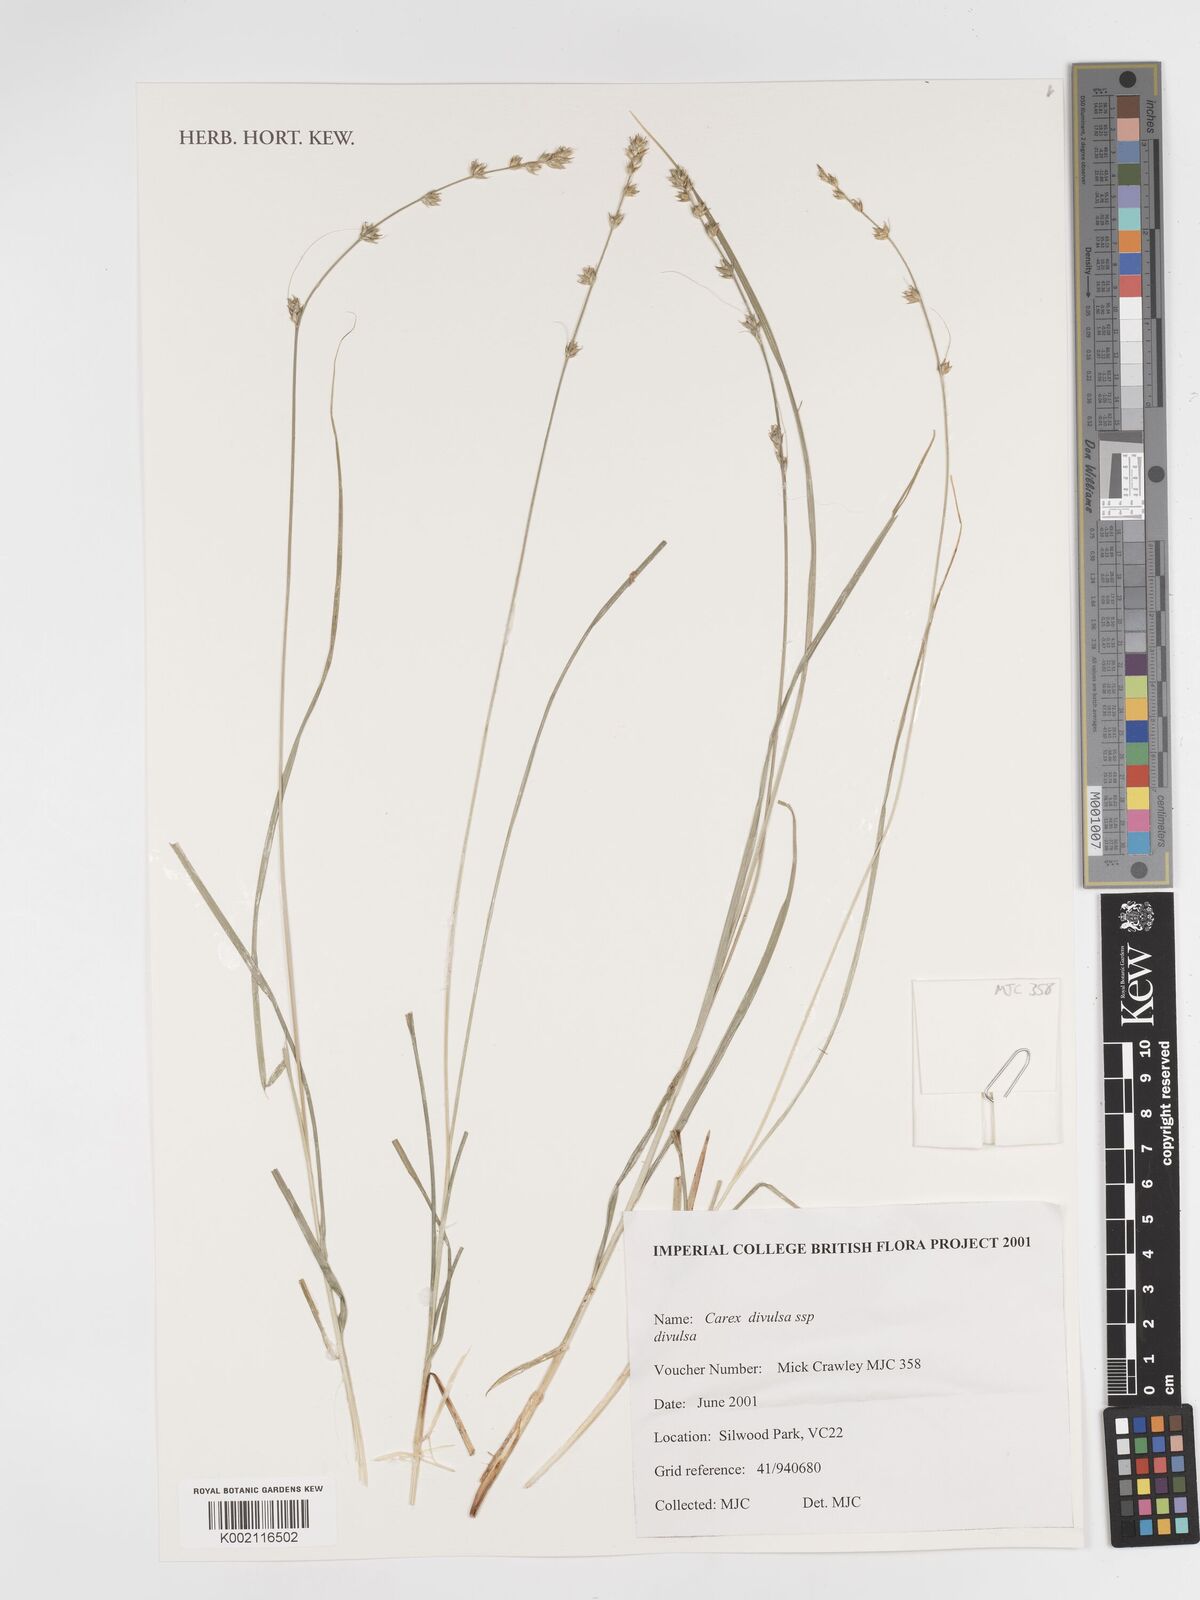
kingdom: Plantae
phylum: Tracheophyta
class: Liliopsida
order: Poales
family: Cyperaceae
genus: Carex
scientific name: Carex divulsa
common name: Grassland sedge
